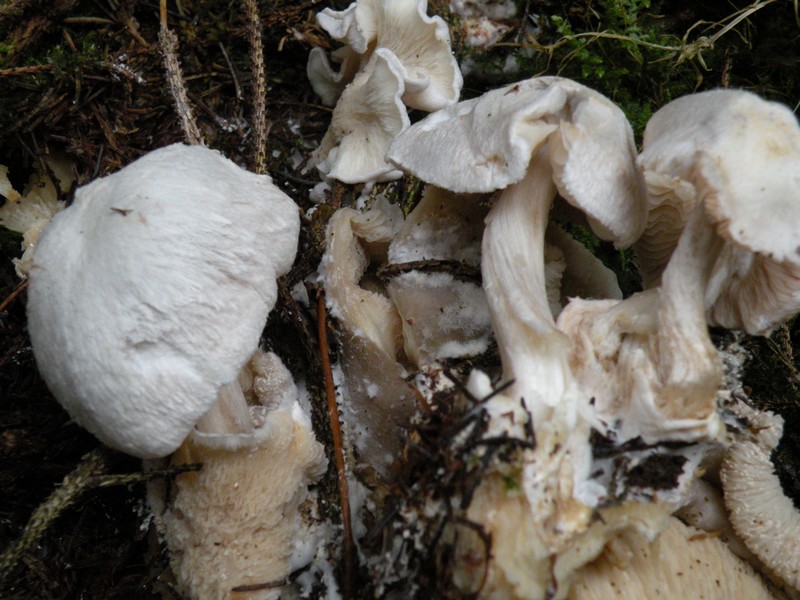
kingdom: Fungi
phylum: Basidiomycota
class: Agaricomycetes
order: Agaricales
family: Pluteaceae
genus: Volvariella
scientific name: Volvariella surrecta
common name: snyltende posesvamp
